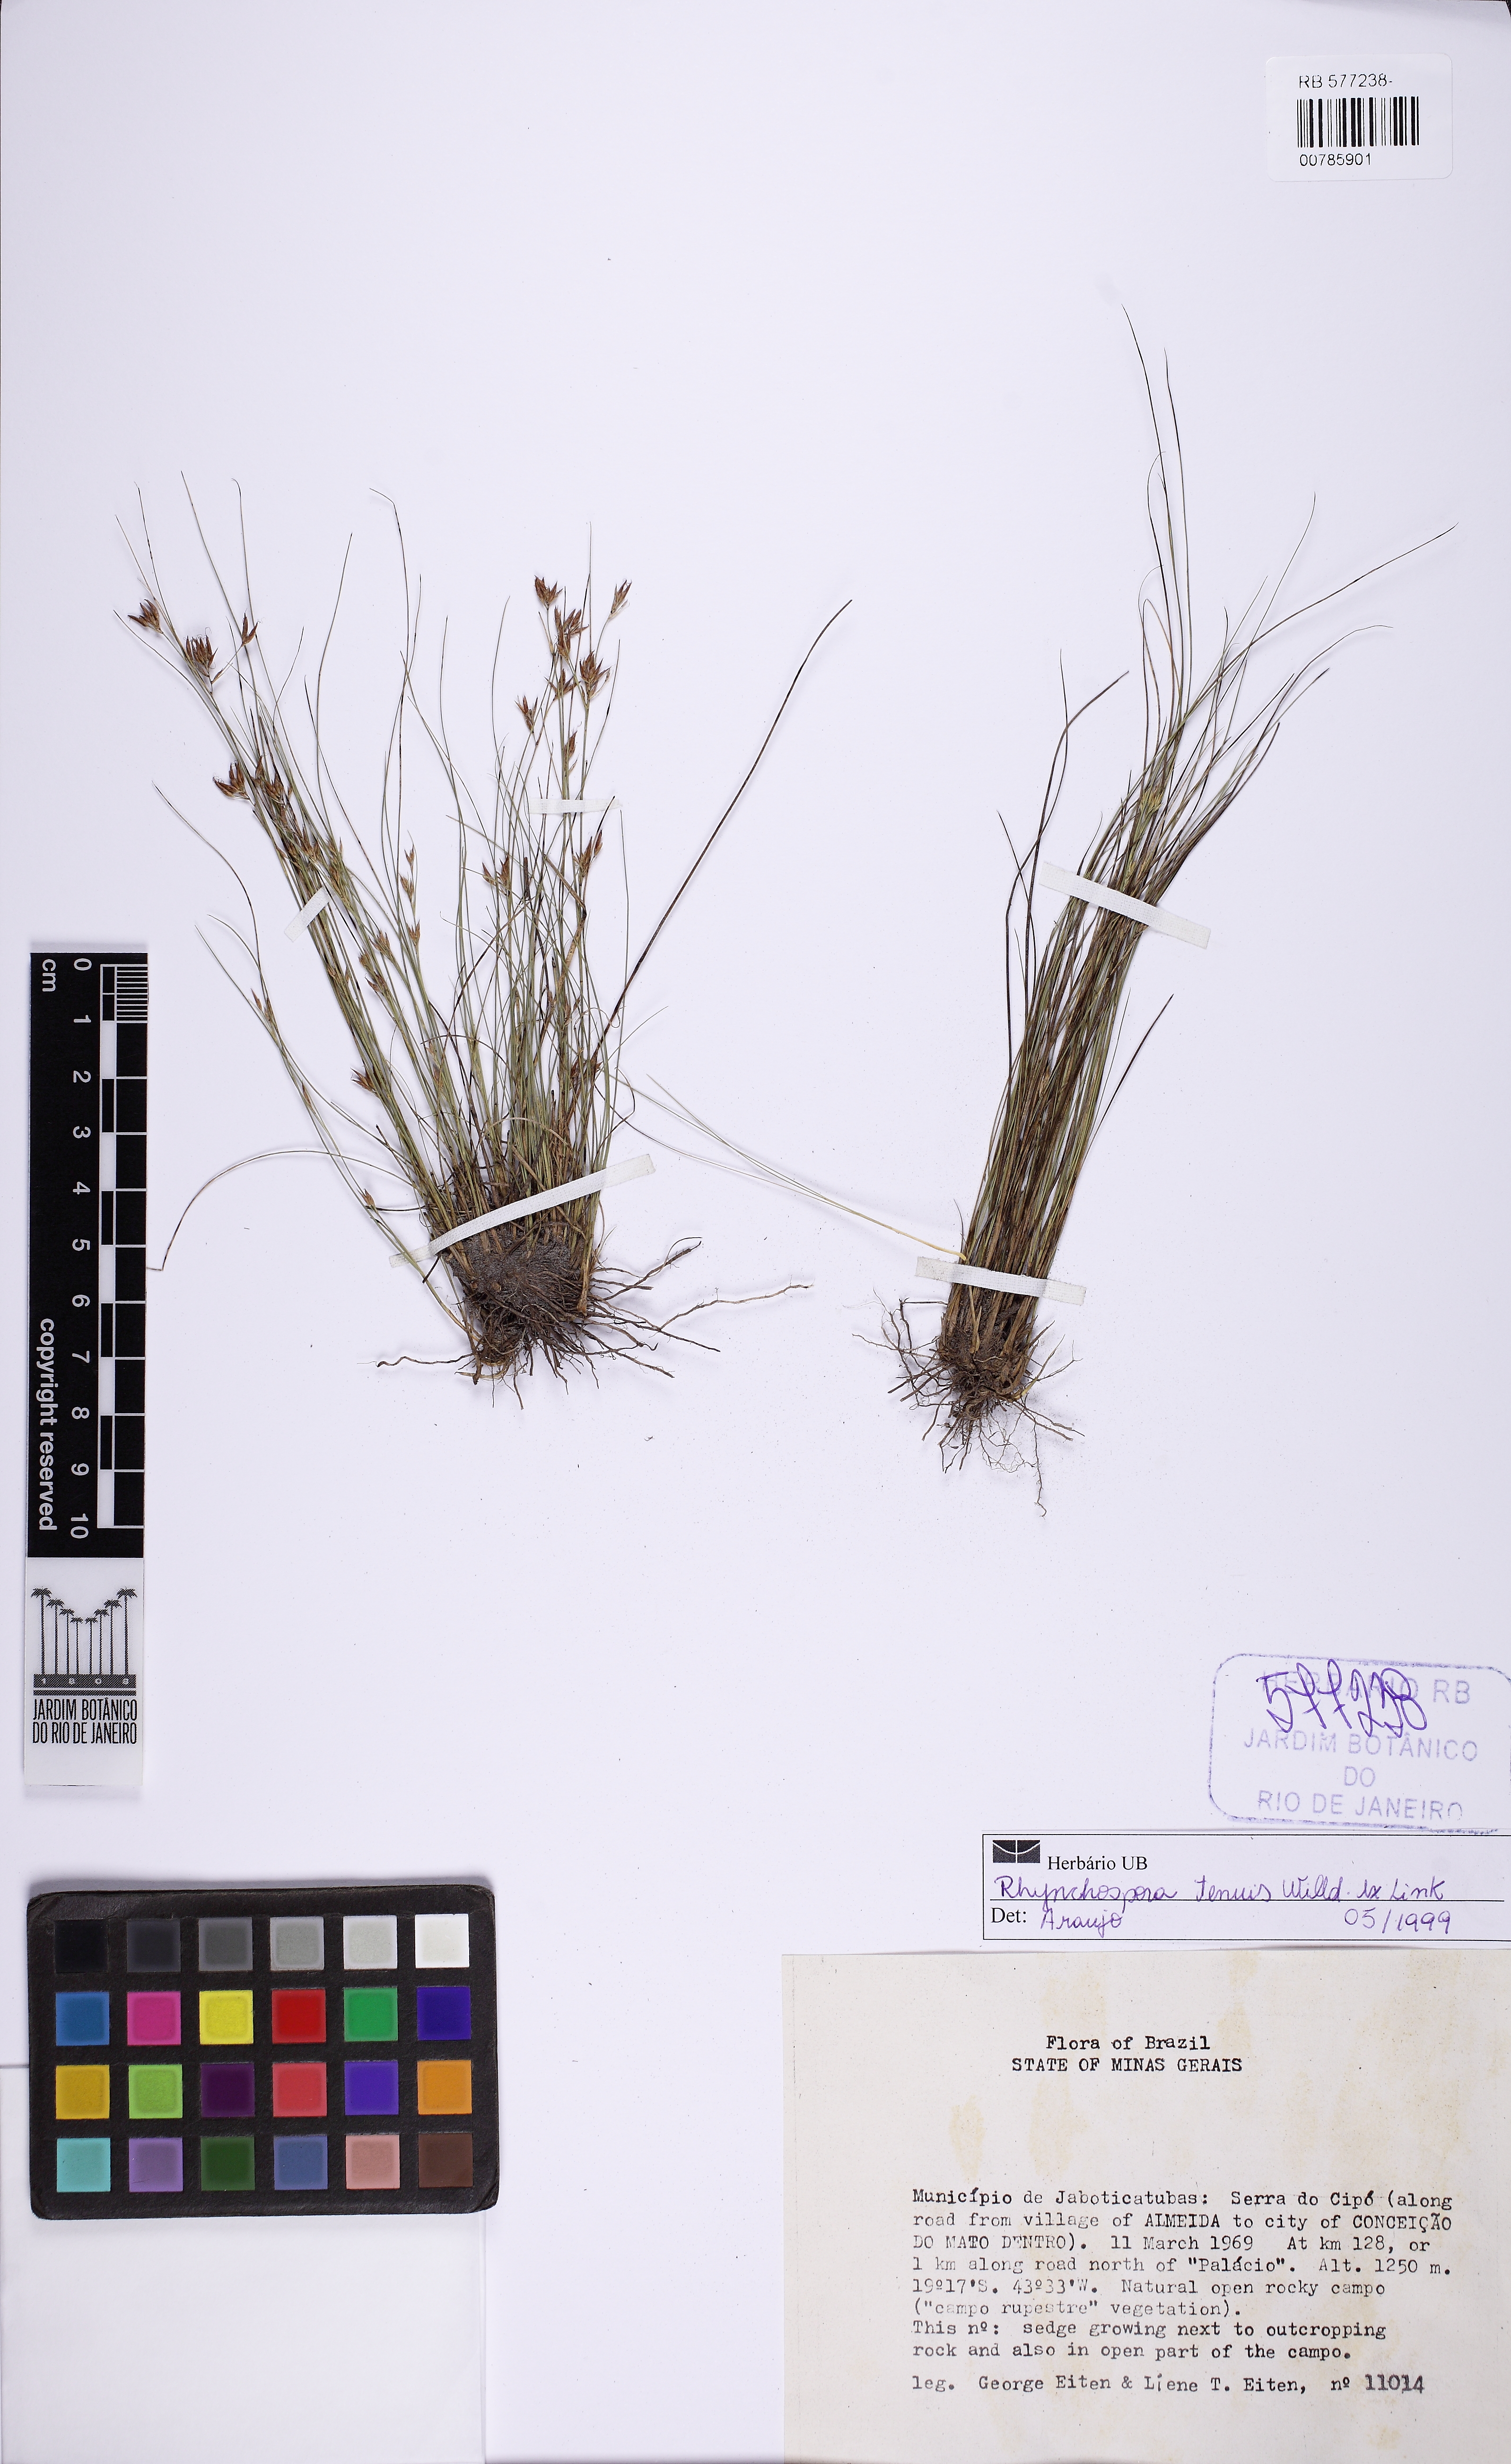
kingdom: Plantae
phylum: Tracheophyta
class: Liliopsida
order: Poales
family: Cyperaceae
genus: Rhynchospora
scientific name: Rhynchospora tenuis
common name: Quill beaksedge
